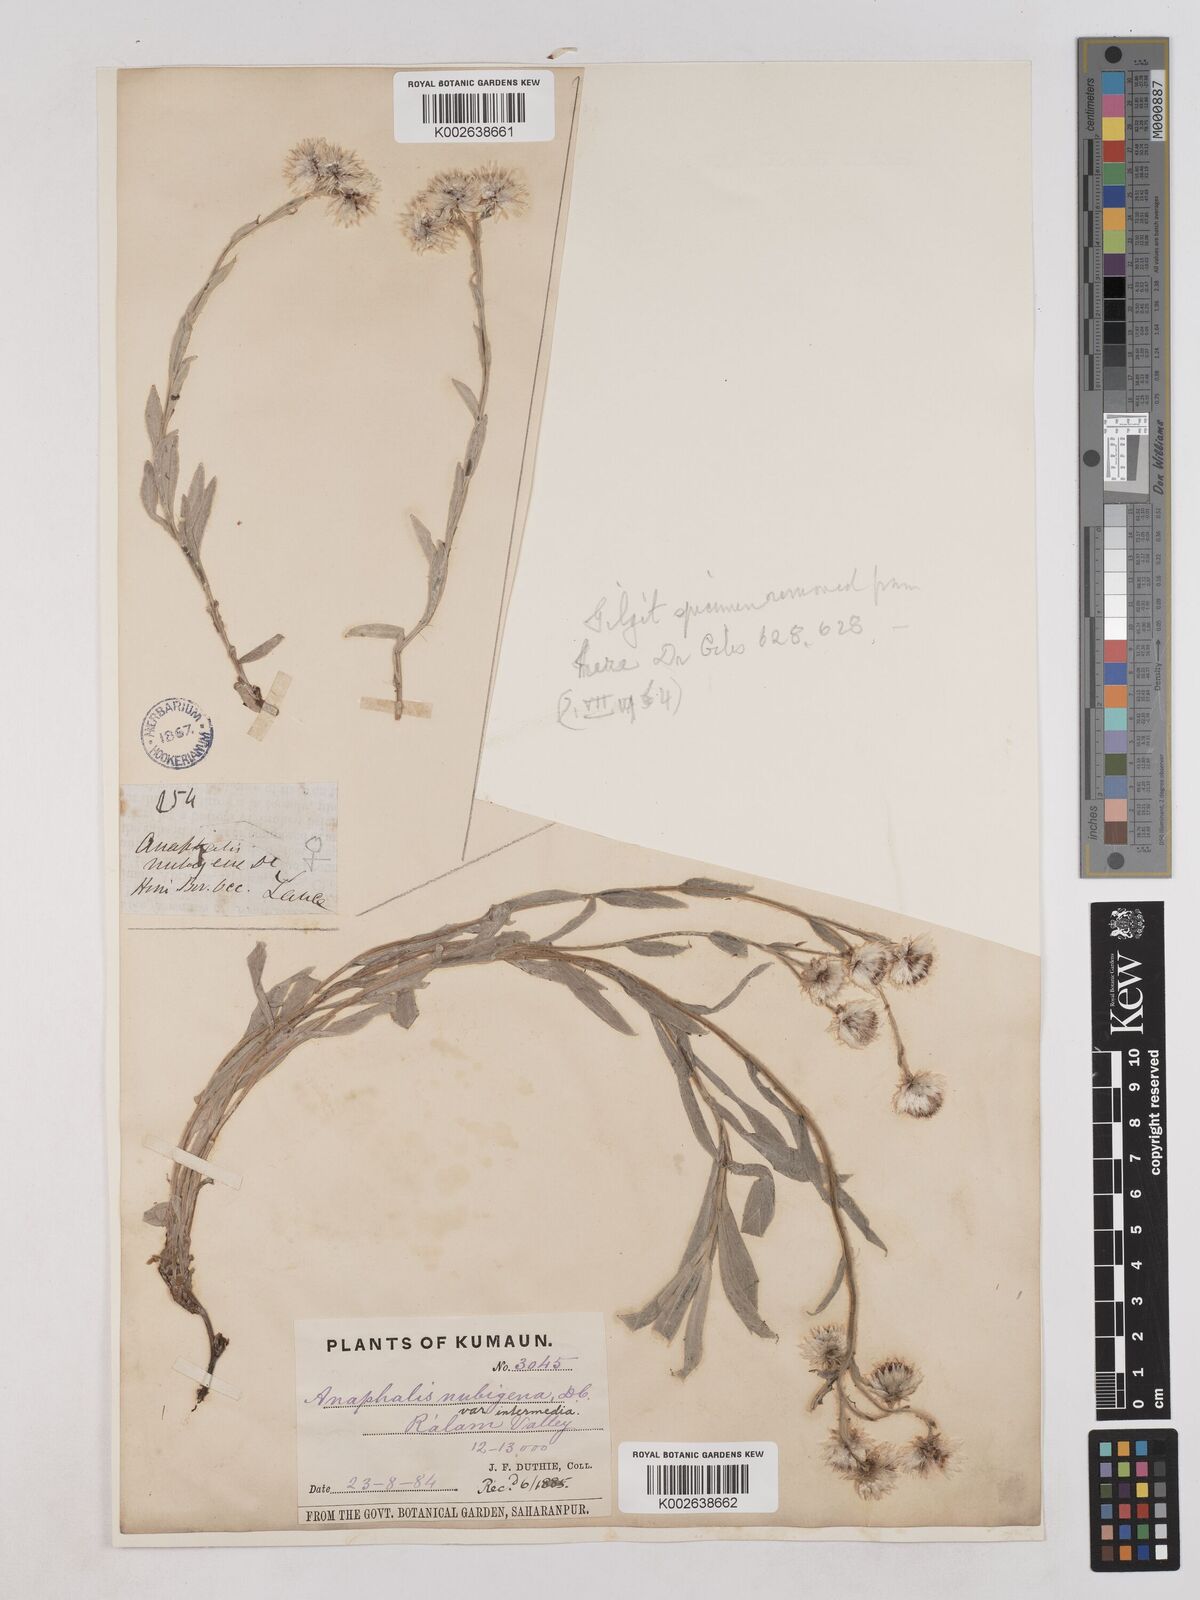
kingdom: Plantae
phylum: Tracheophyta
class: Magnoliopsida
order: Asterales
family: Asteraceae
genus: Anaphalioides
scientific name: Anaphalioides trinervis
